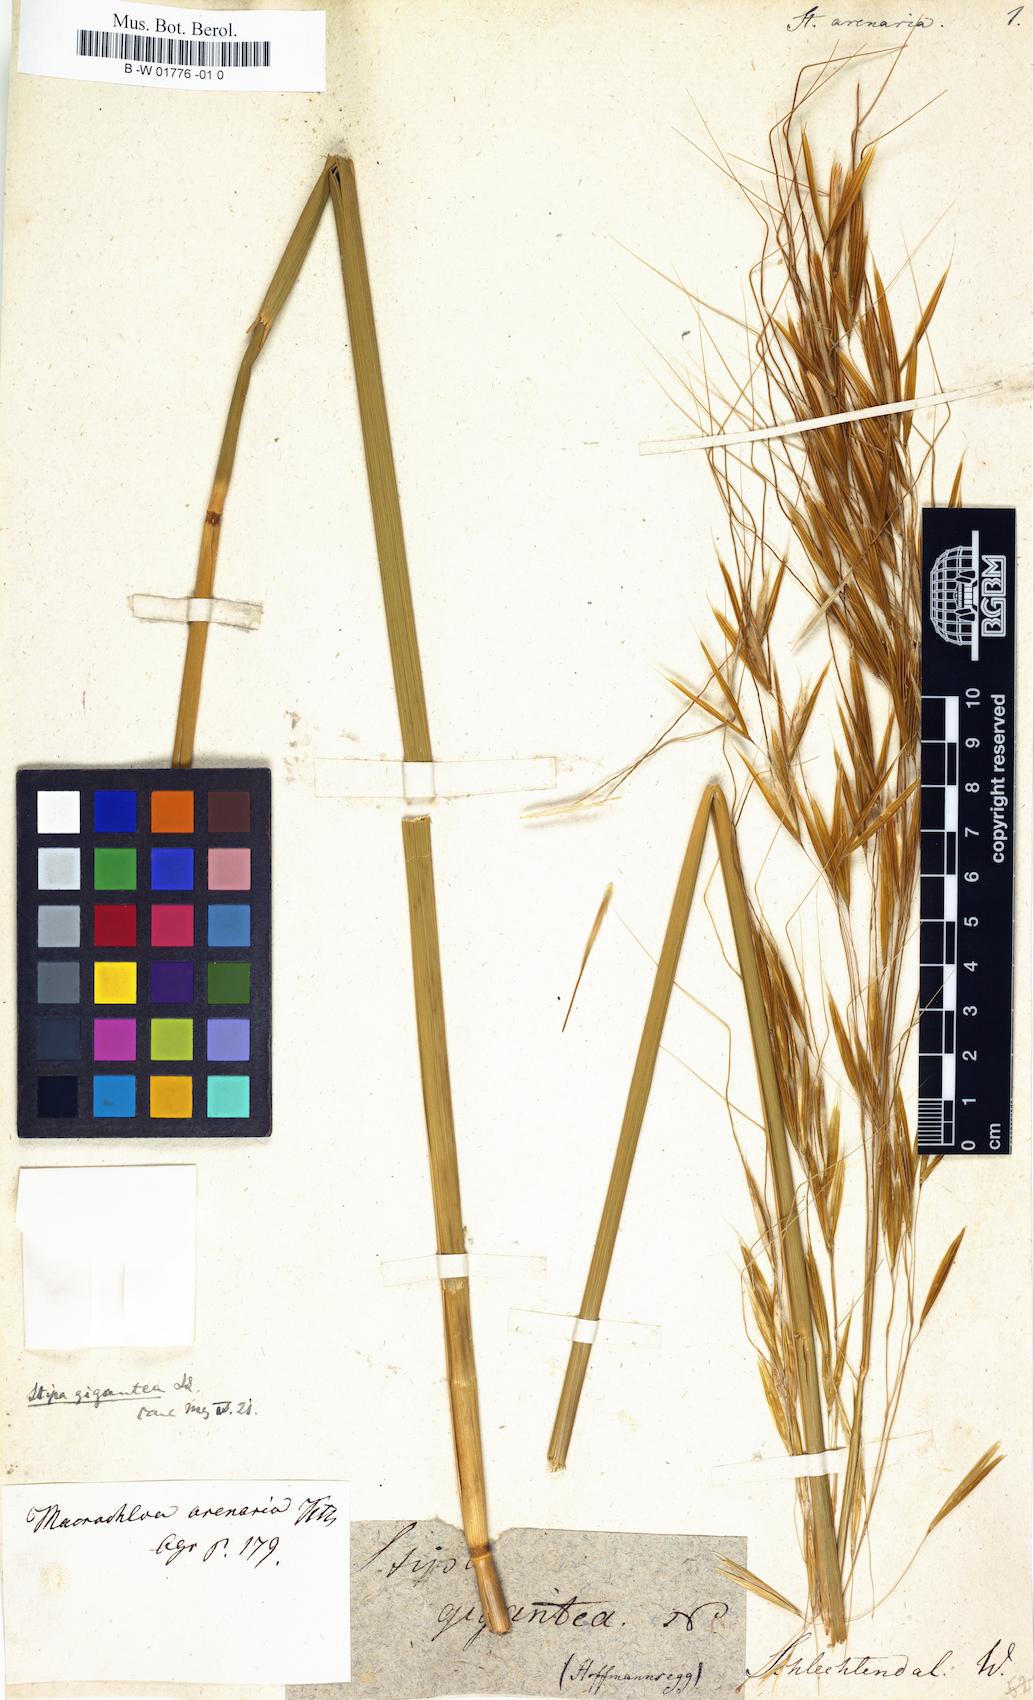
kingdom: Plantae
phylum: Tracheophyta
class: Liliopsida
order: Poales
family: Poaceae
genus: Celtica
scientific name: Celtica gigantea
